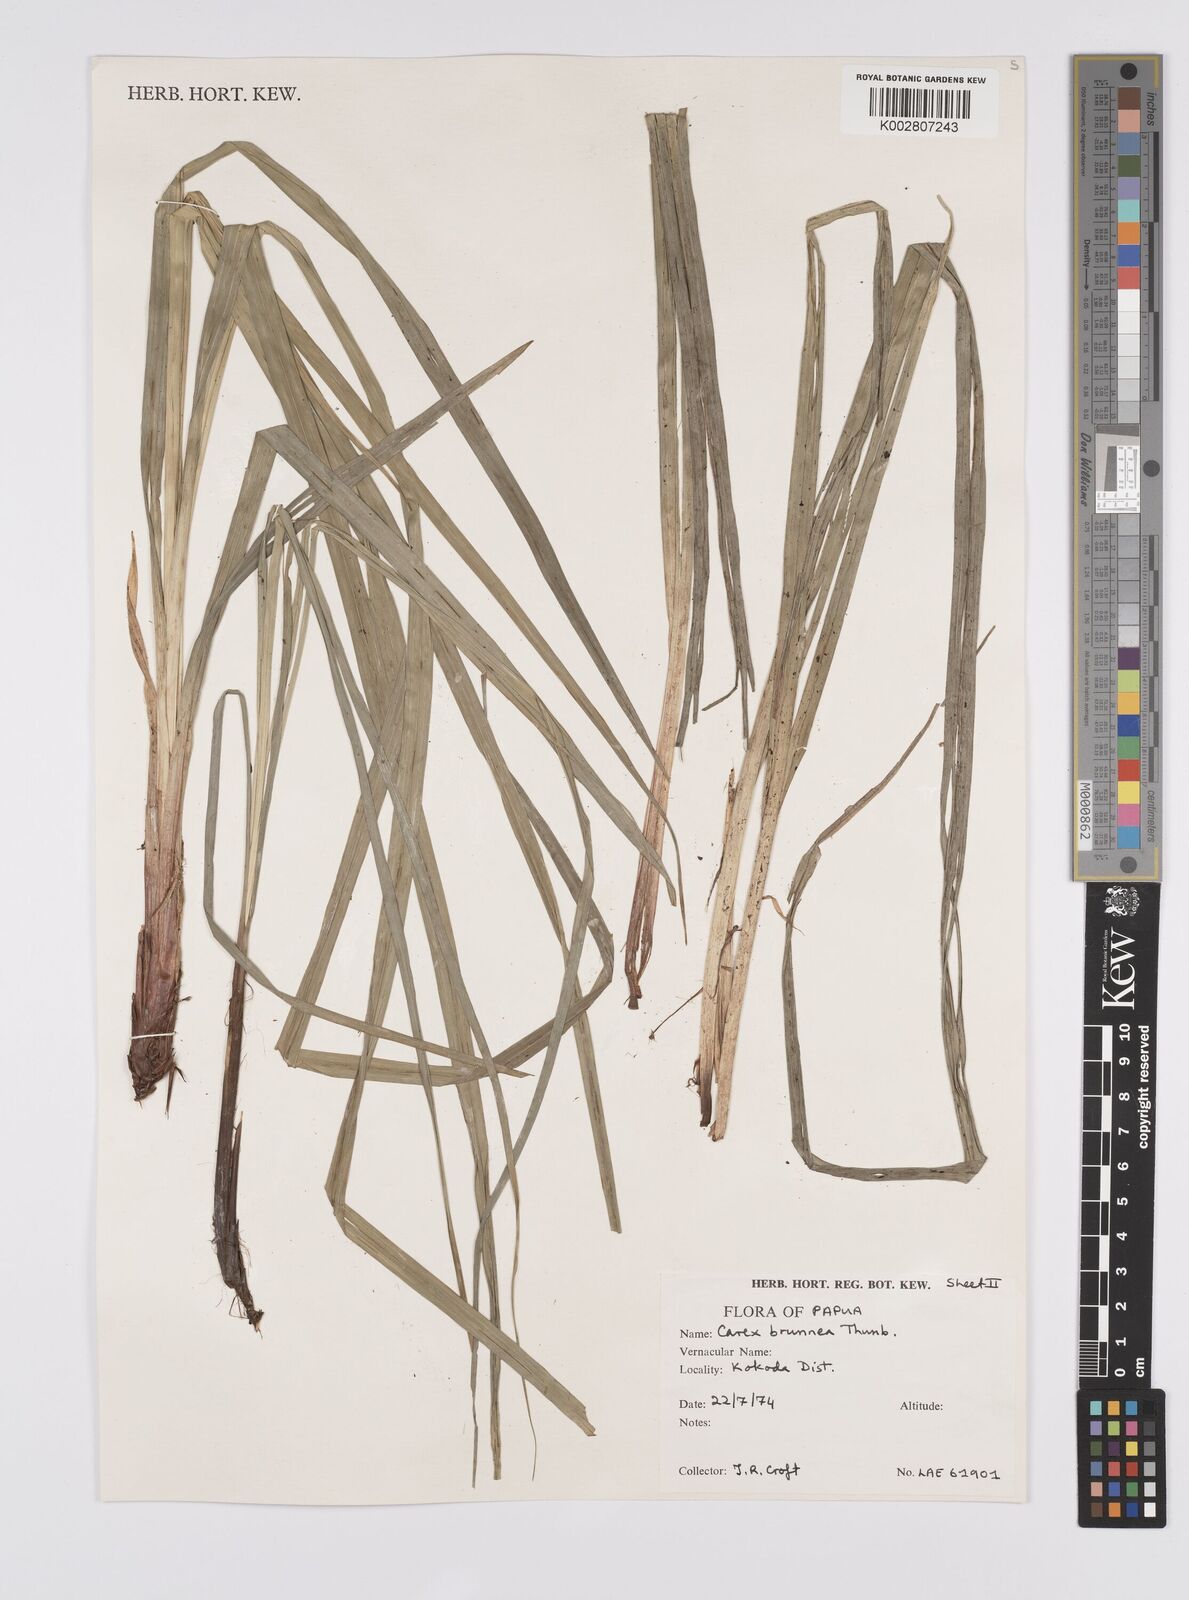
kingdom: Plantae
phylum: Tracheophyta
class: Liliopsida
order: Poales
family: Cyperaceae
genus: Carex
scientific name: Carex brunnea
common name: Greater brown sedge
